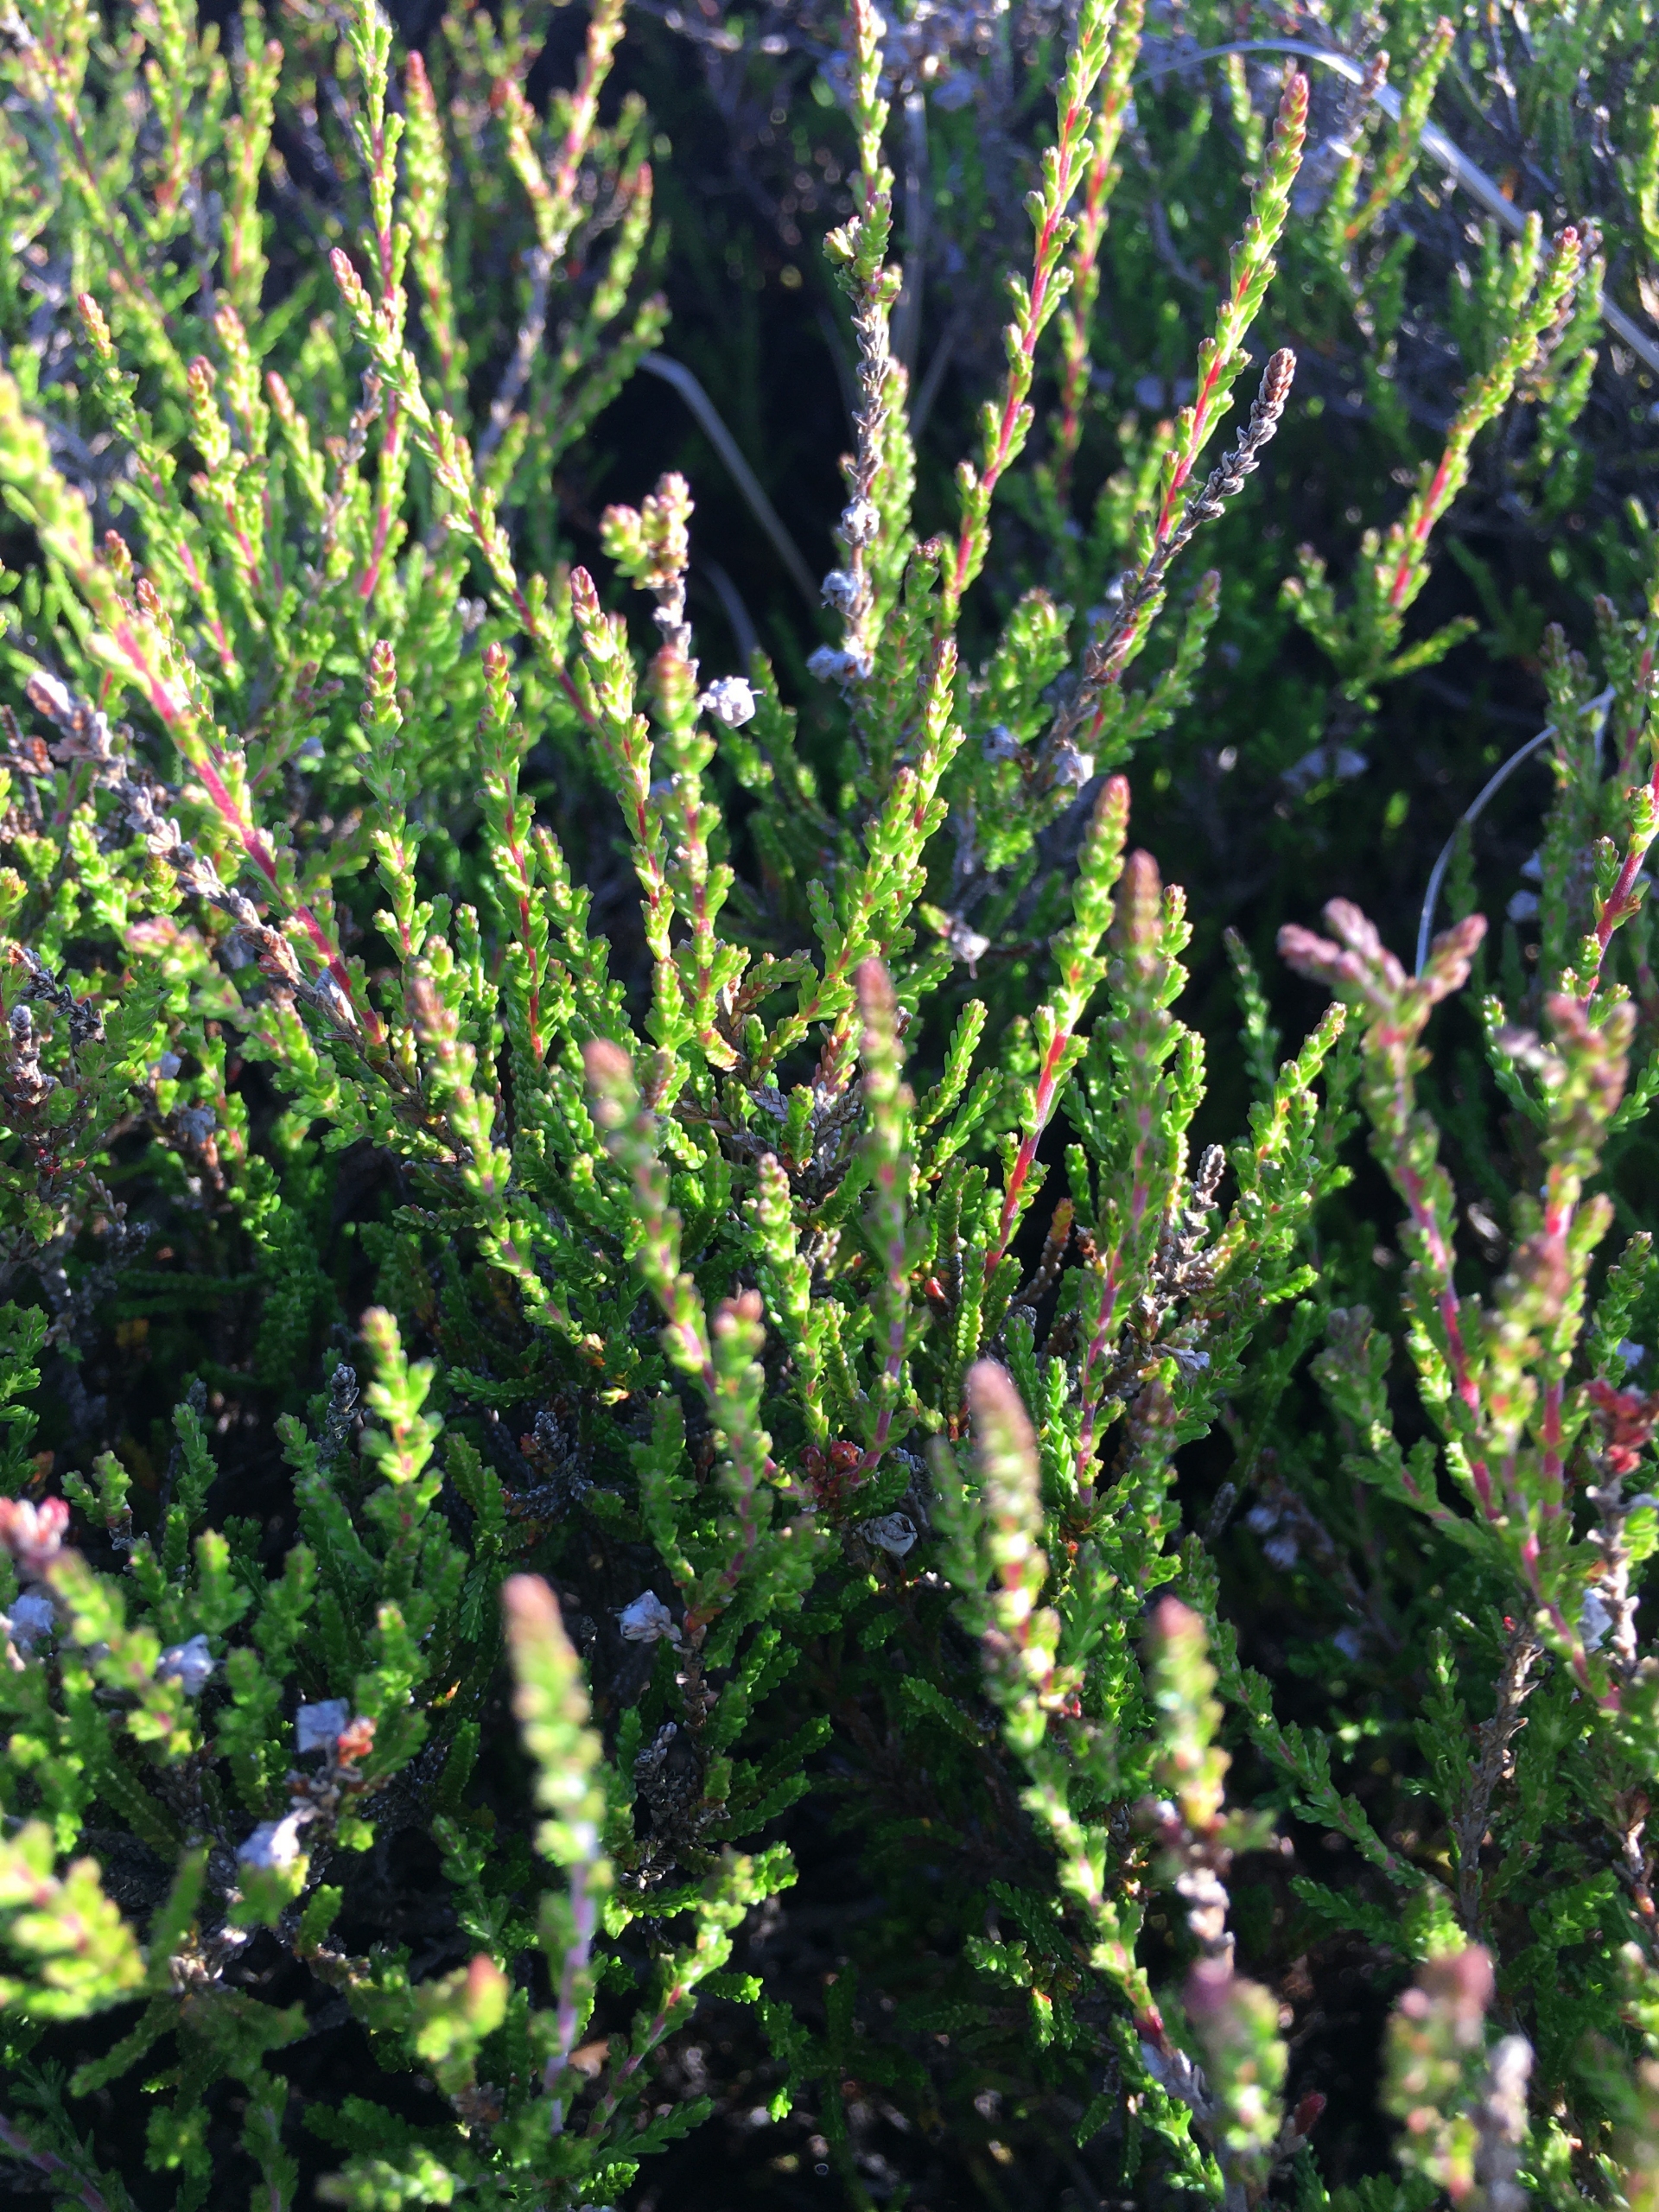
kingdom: Plantae
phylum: Tracheophyta
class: Magnoliopsida
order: Ericales
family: Ericaceae
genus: Calluna
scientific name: Calluna vulgaris
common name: Hedelyng
